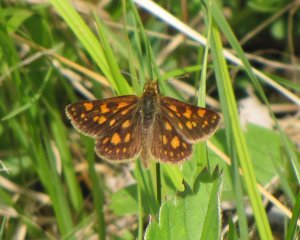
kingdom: Animalia
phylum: Arthropoda
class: Insecta
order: Lepidoptera
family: Hesperiidae
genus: Carterocephalus
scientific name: Carterocephalus palaemon
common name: Chequered Skipper
